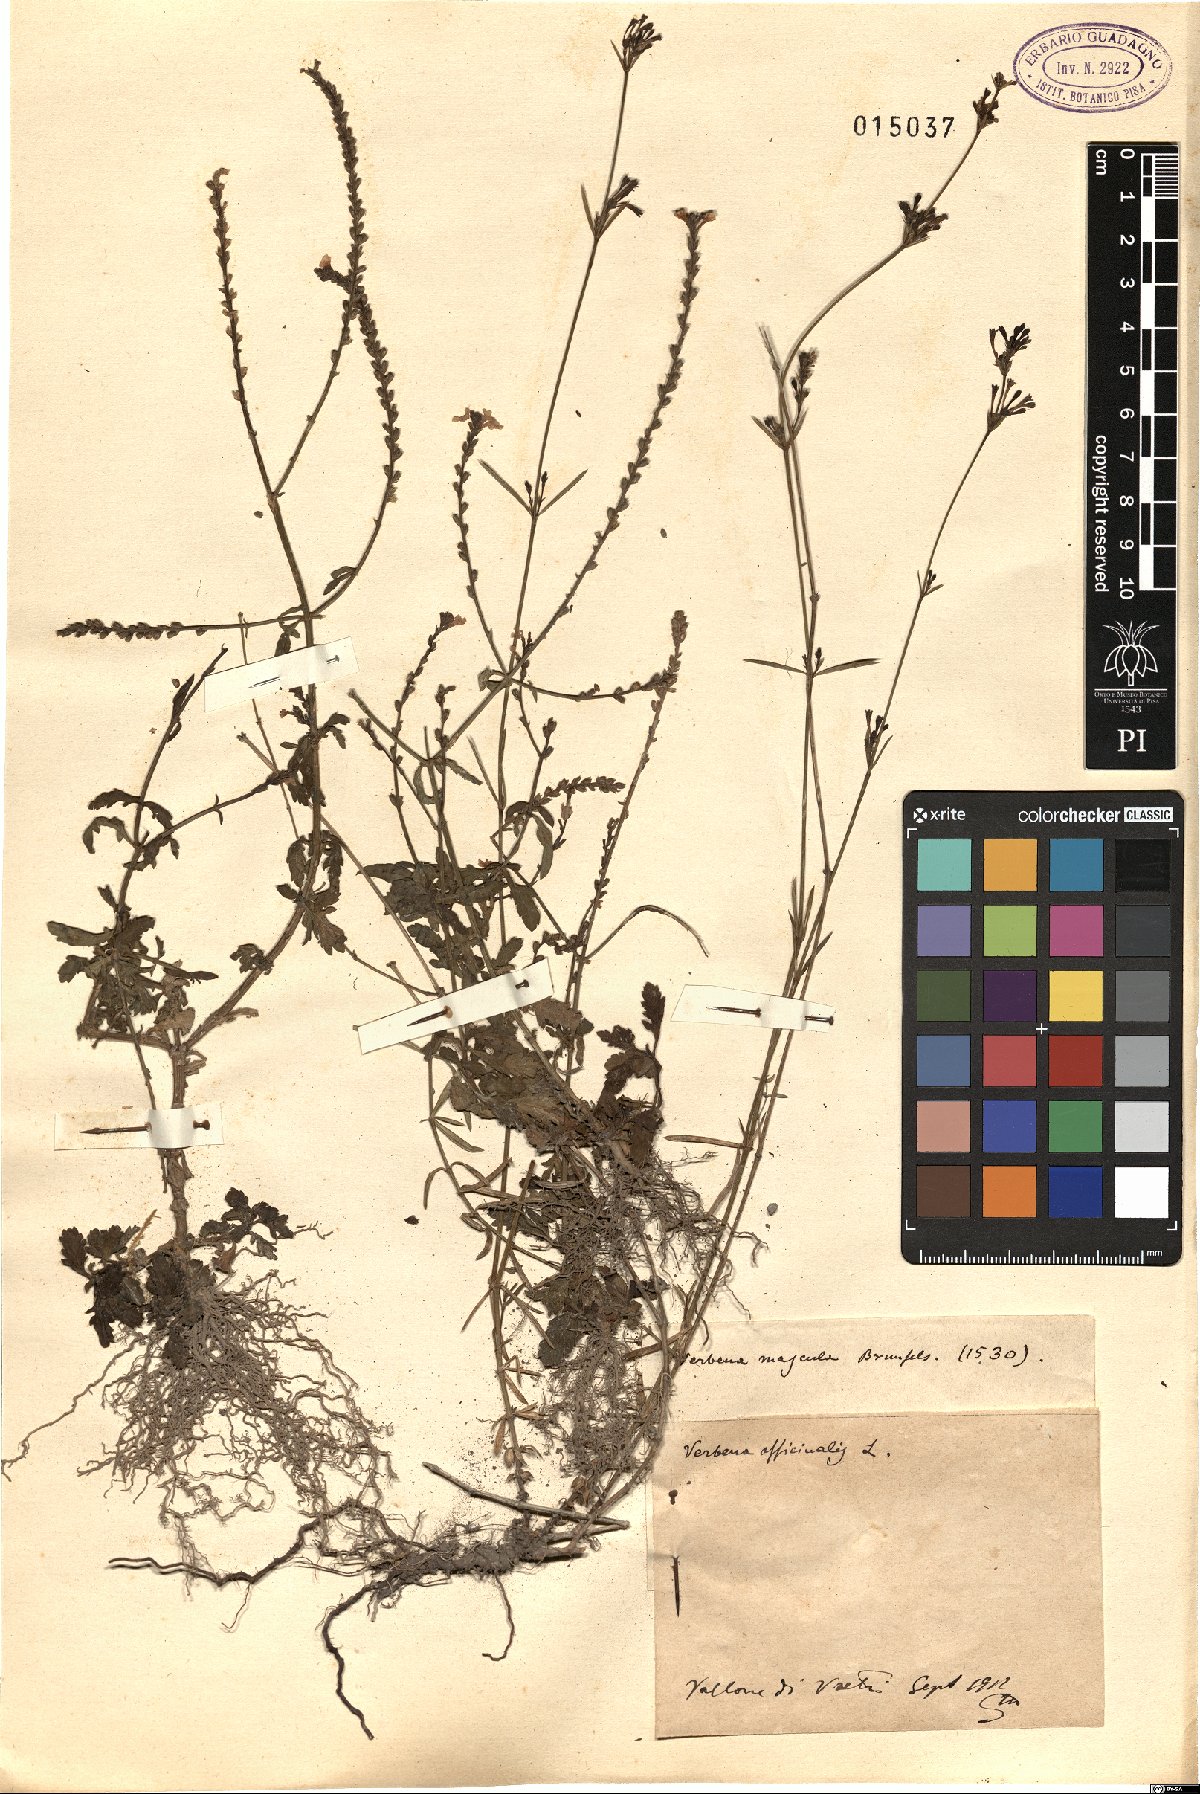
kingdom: Plantae
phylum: Tracheophyta
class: Magnoliopsida
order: Lamiales
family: Verbenaceae
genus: Verbena
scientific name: Verbena officinalis
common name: Vervain
